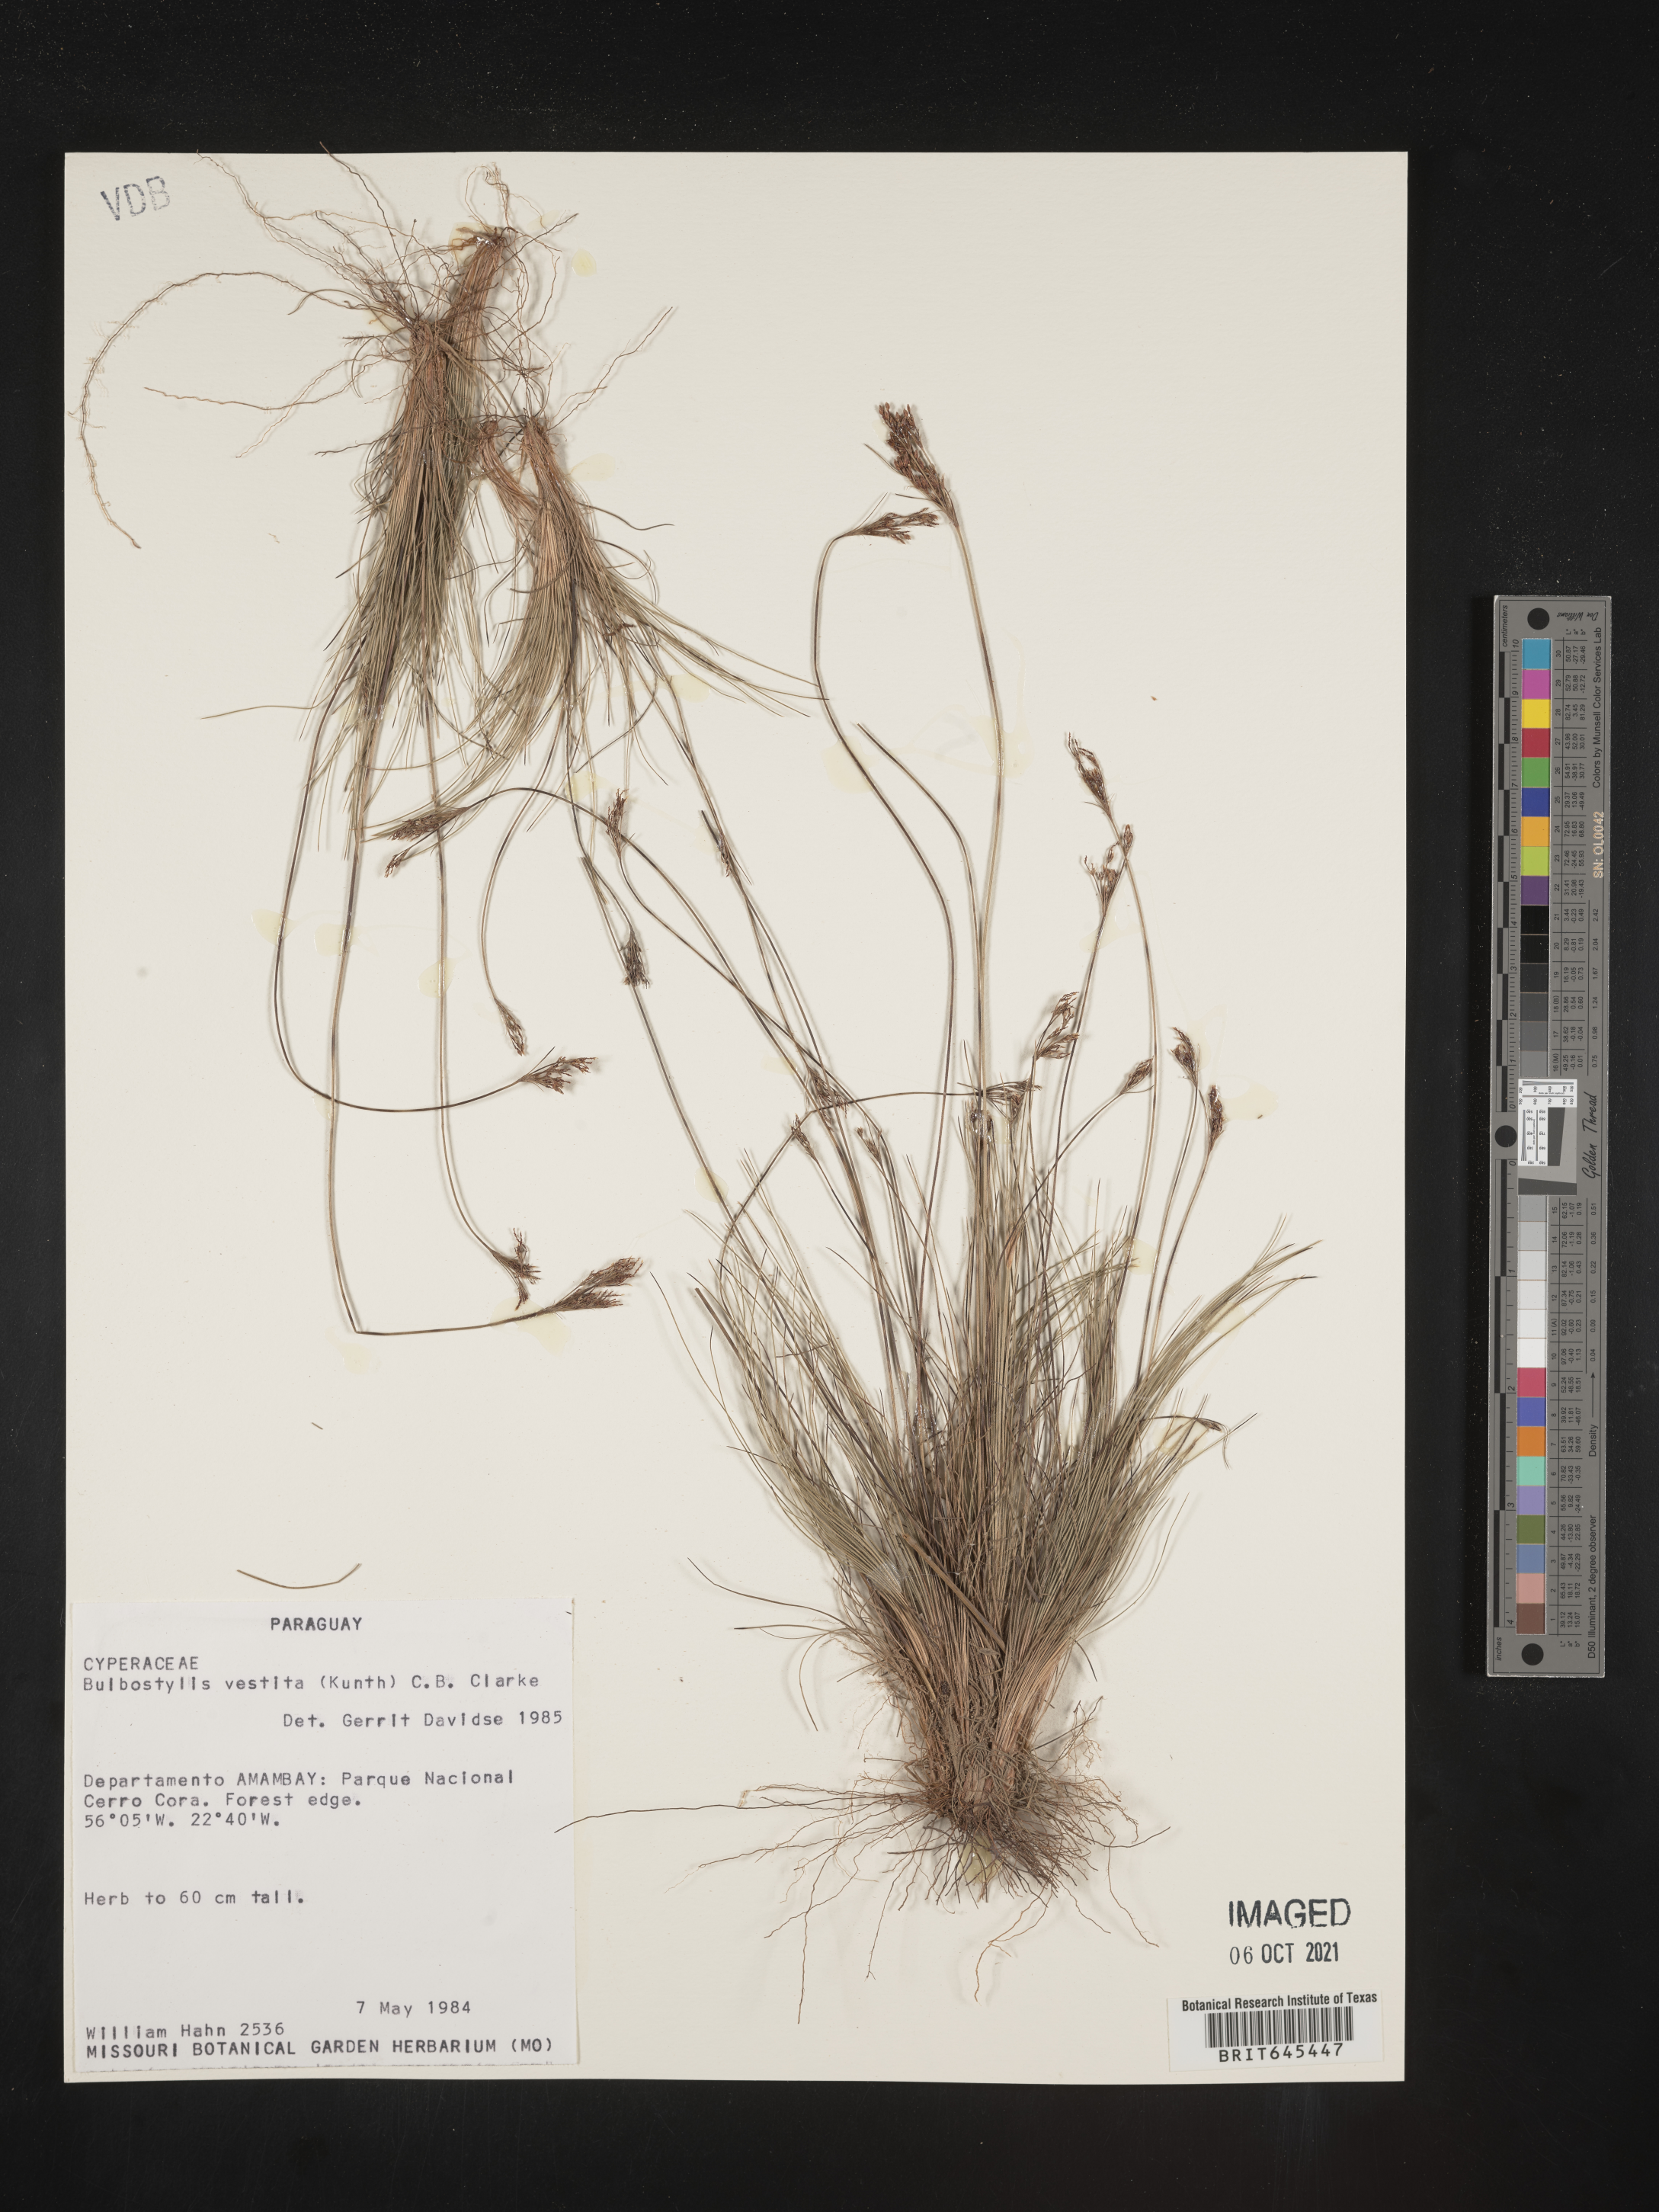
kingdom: Plantae
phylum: Tracheophyta
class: Liliopsida
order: Poales
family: Cyperaceae
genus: Bulbostylis
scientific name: Bulbostylis vestita
